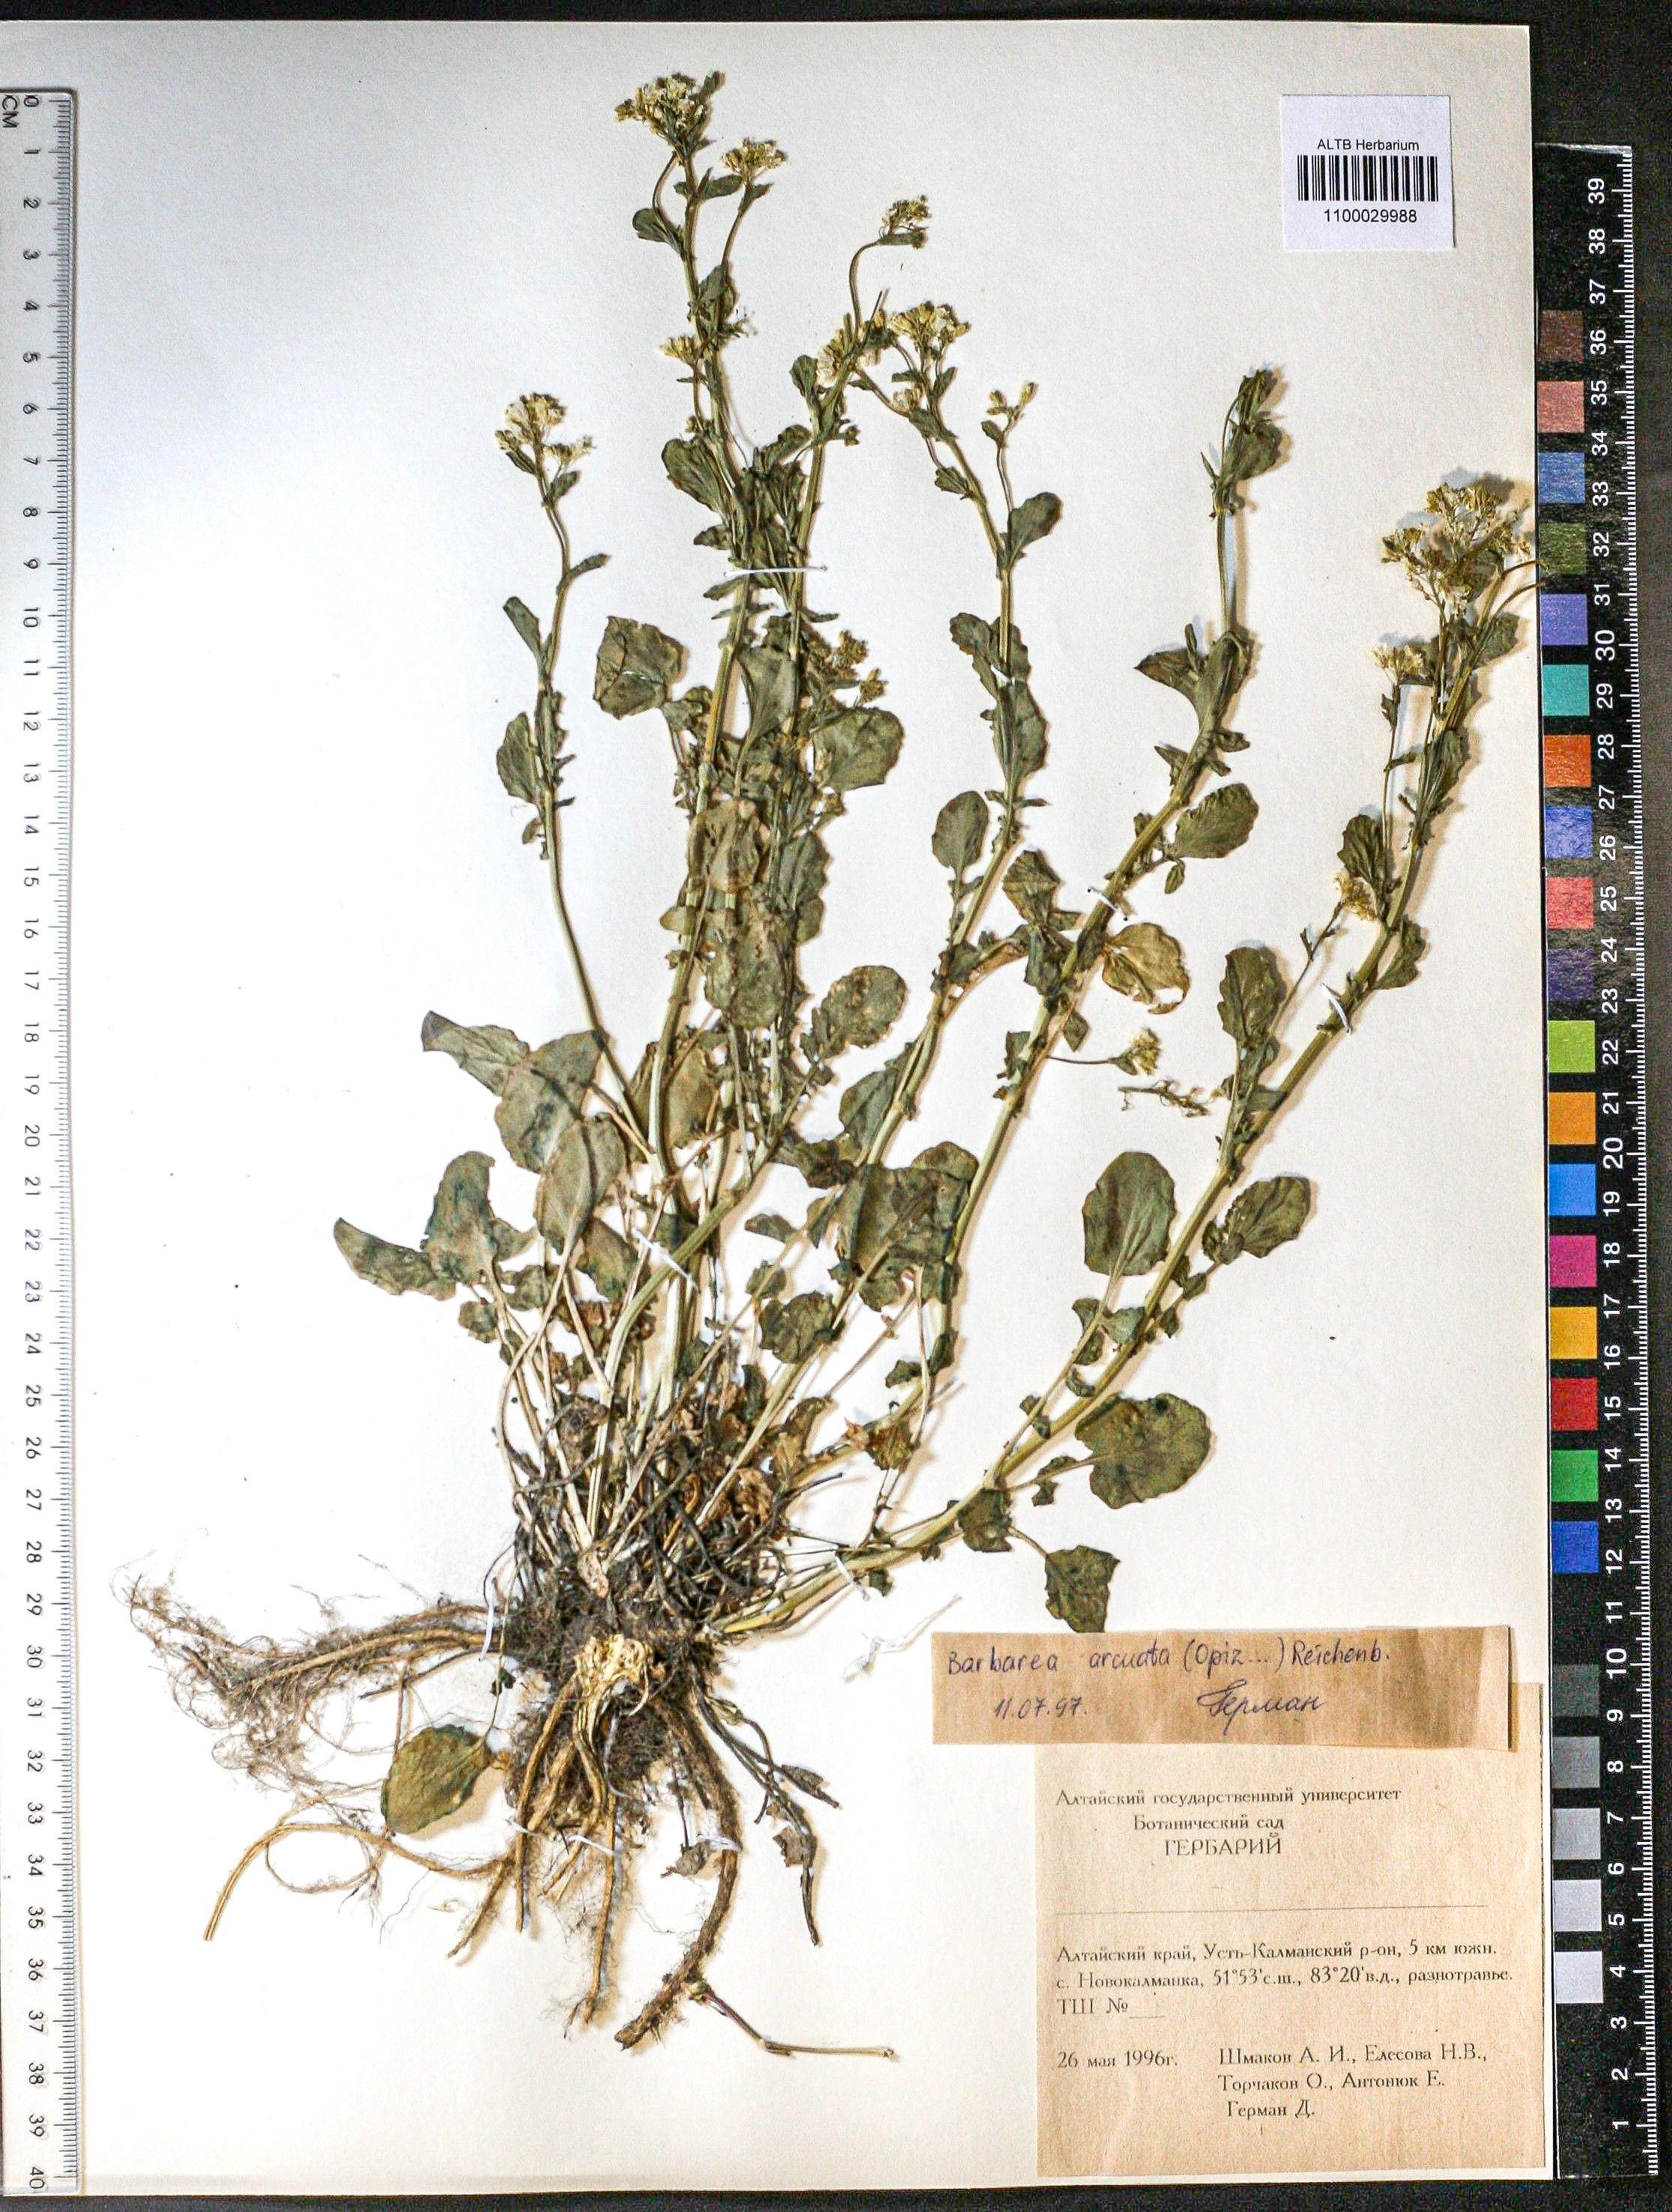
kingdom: Plantae
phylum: Tracheophyta
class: Magnoliopsida
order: Brassicales
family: Brassicaceae
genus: Barbarea
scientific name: Barbarea vulgaris
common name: Cressy-greens
